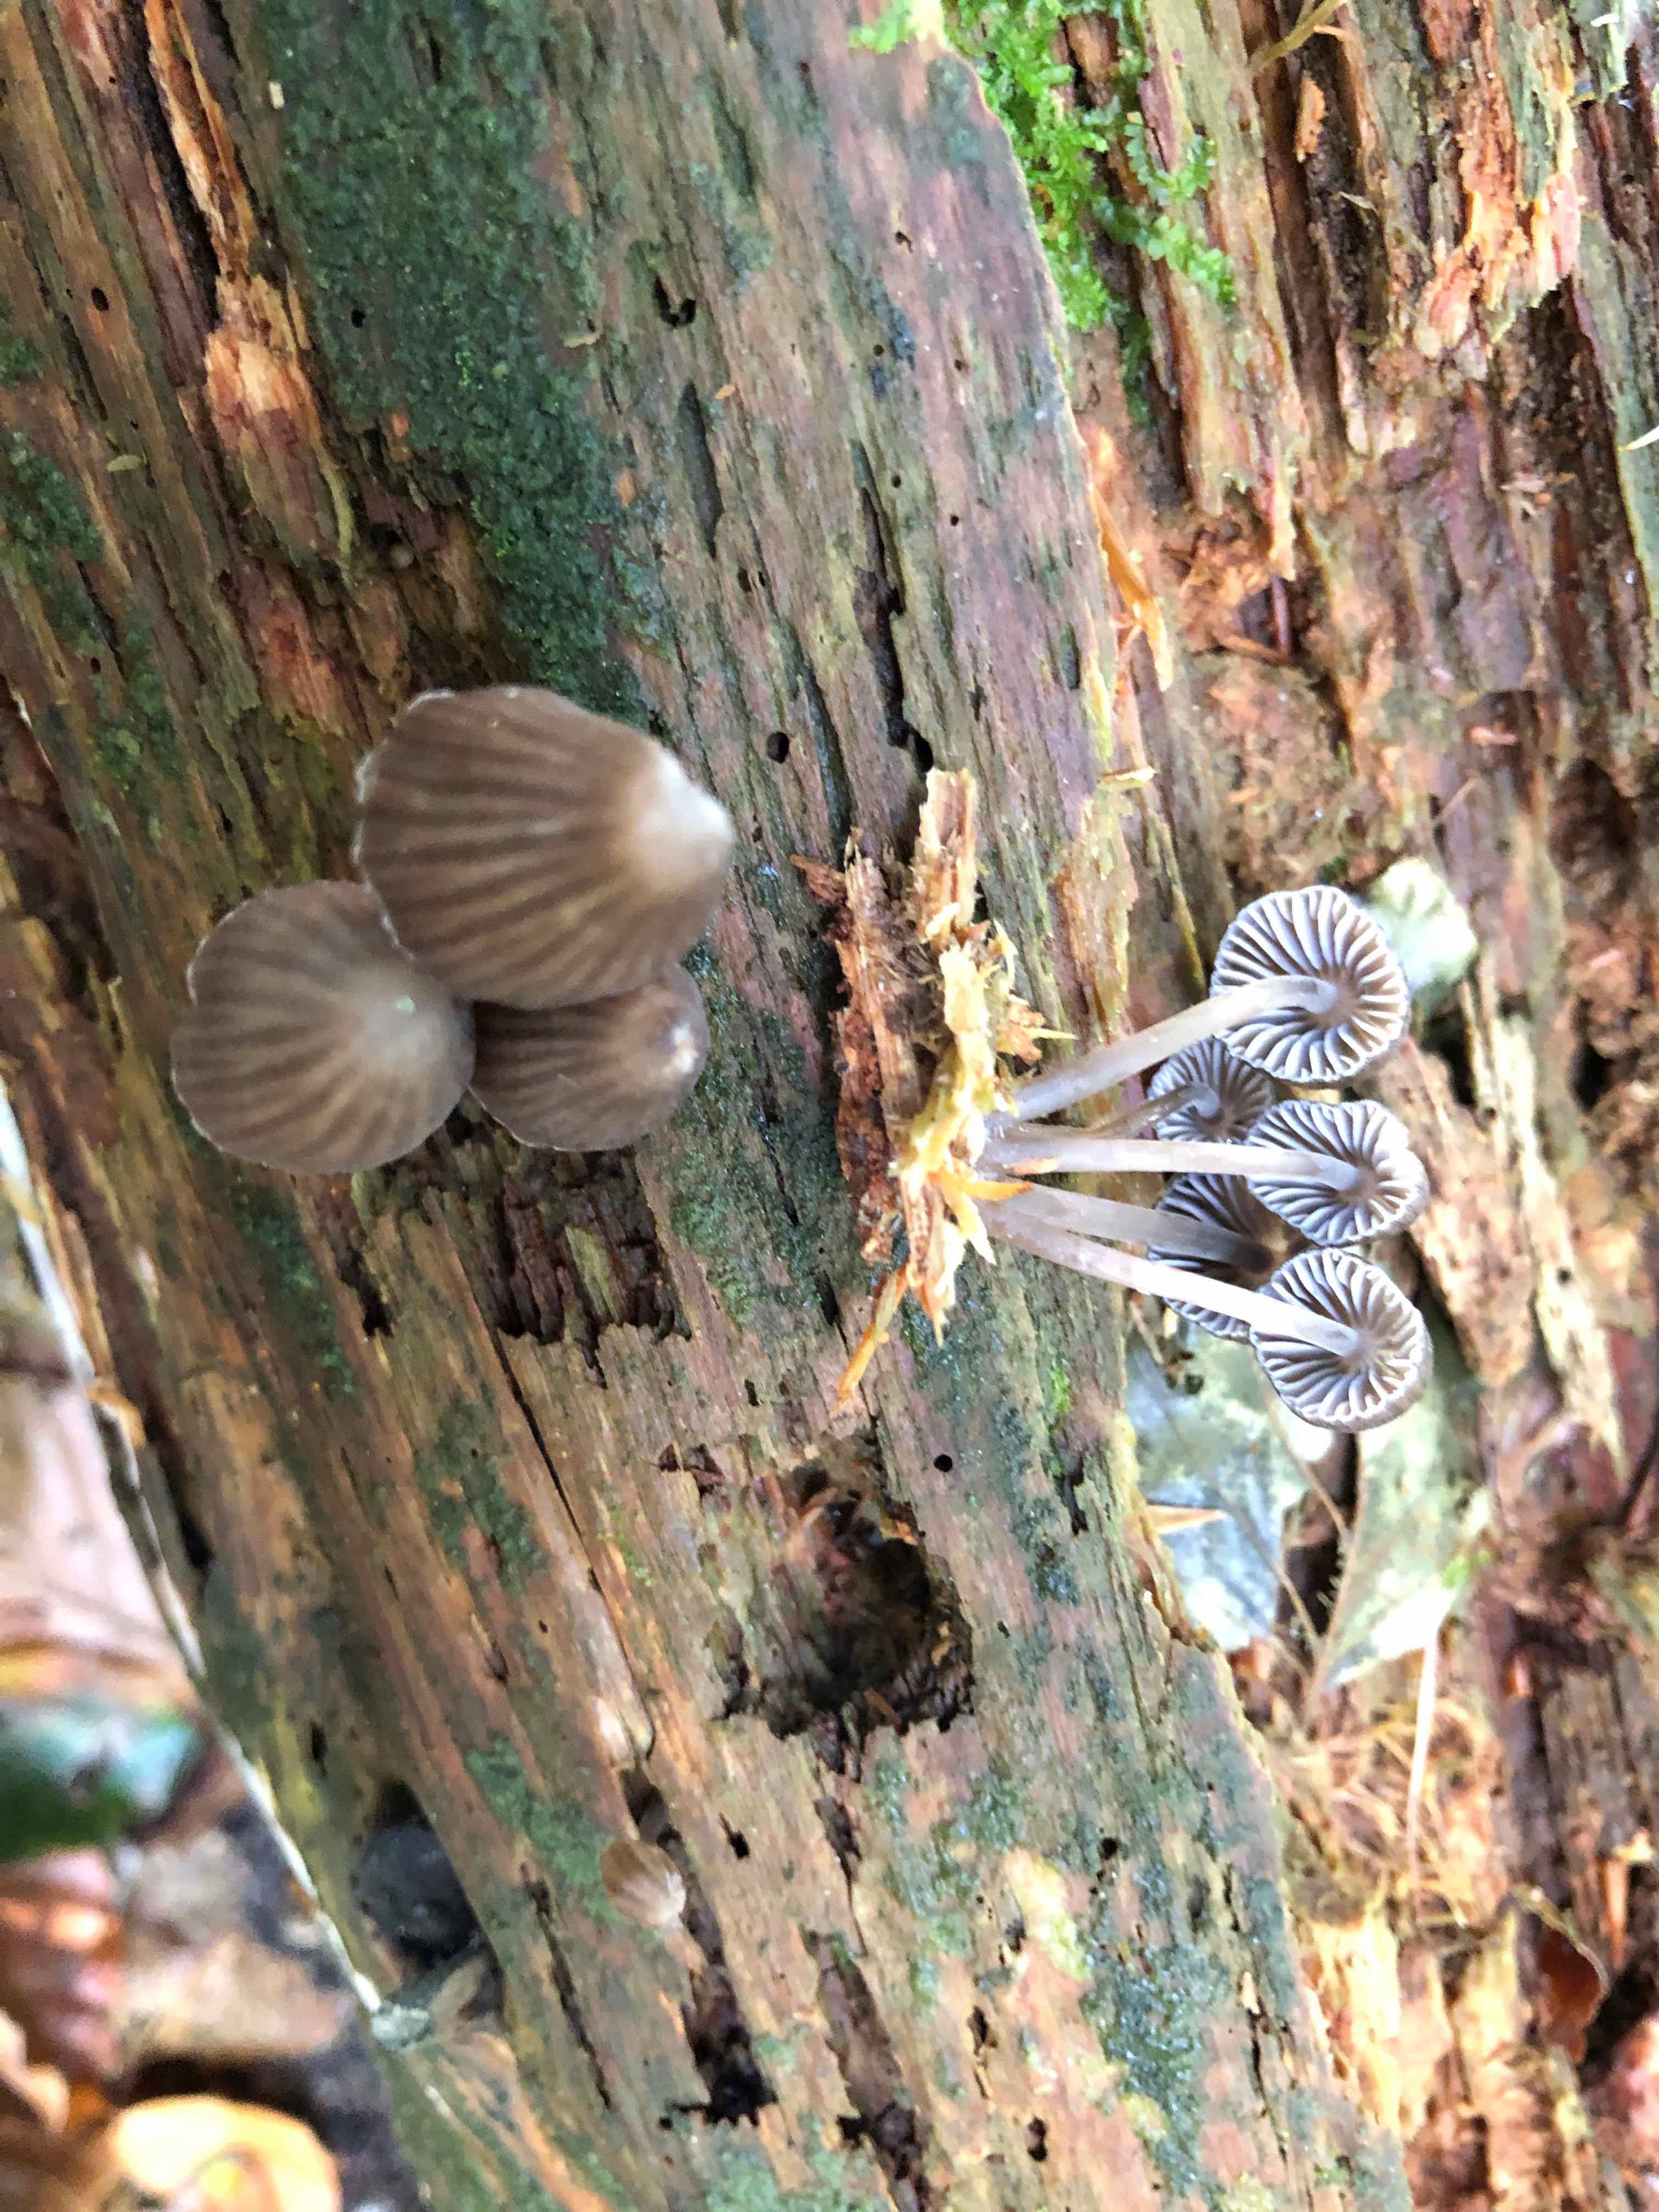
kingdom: Fungi
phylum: Basidiomycota
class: Agaricomycetes
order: Agaricales
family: Mycenaceae
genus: Mycena
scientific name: Mycena stipata
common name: stinkende huesvamp
